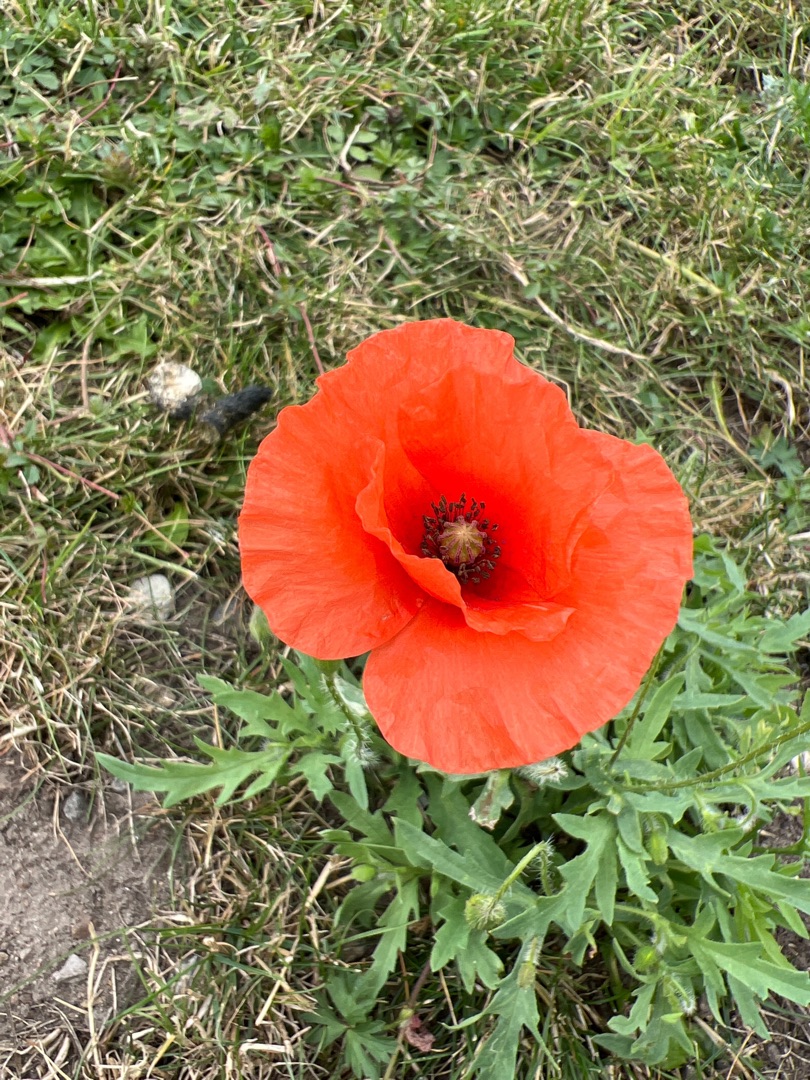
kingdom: Plantae
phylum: Tracheophyta
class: Magnoliopsida
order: Ranunculales
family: Papaveraceae
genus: Papaver
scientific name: Papaver rhoeas
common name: Korn-valmue
